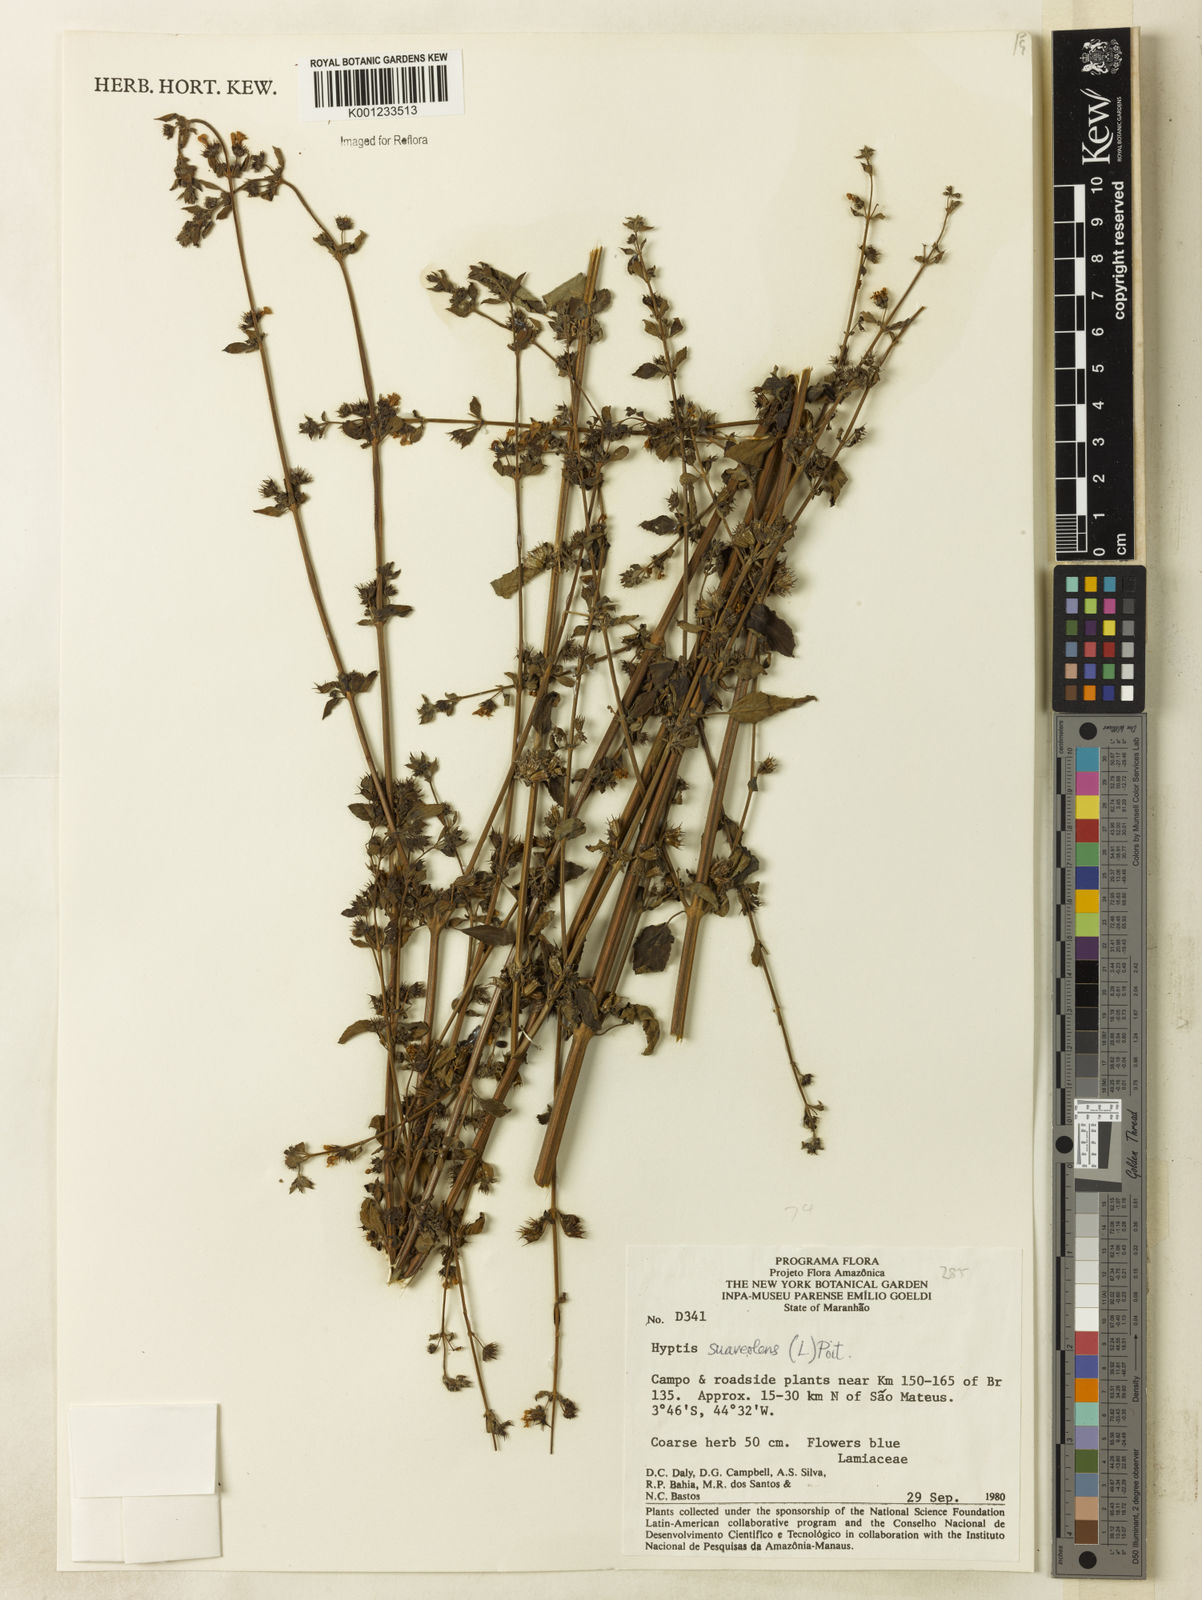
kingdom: Plantae
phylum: Tracheophyta
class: Magnoliopsida
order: Lamiales
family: Lamiaceae
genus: Mesosphaerum
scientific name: Mesosphaerum suaveolens
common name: Pignut
